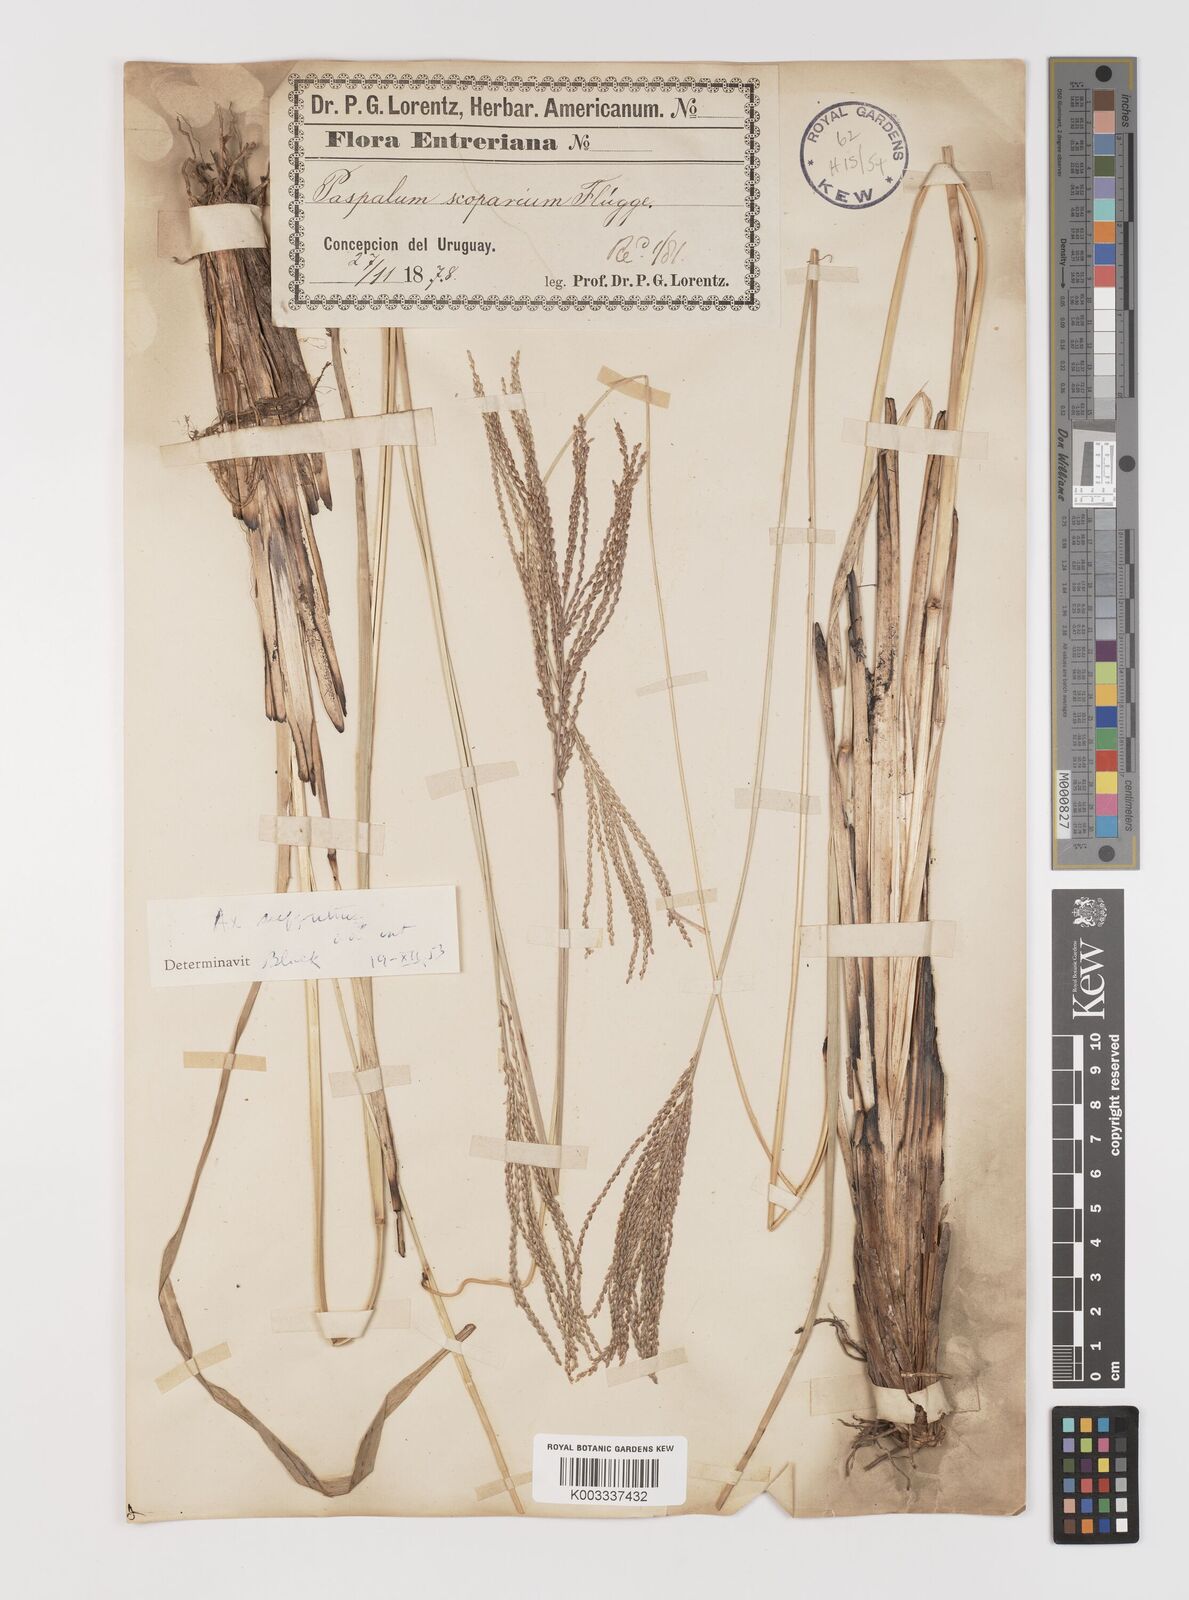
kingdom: Plantae
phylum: Tracheophyta
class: Liliopsida
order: Poales
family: Poaceae
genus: Axonopus
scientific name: Axonopus suffultus
